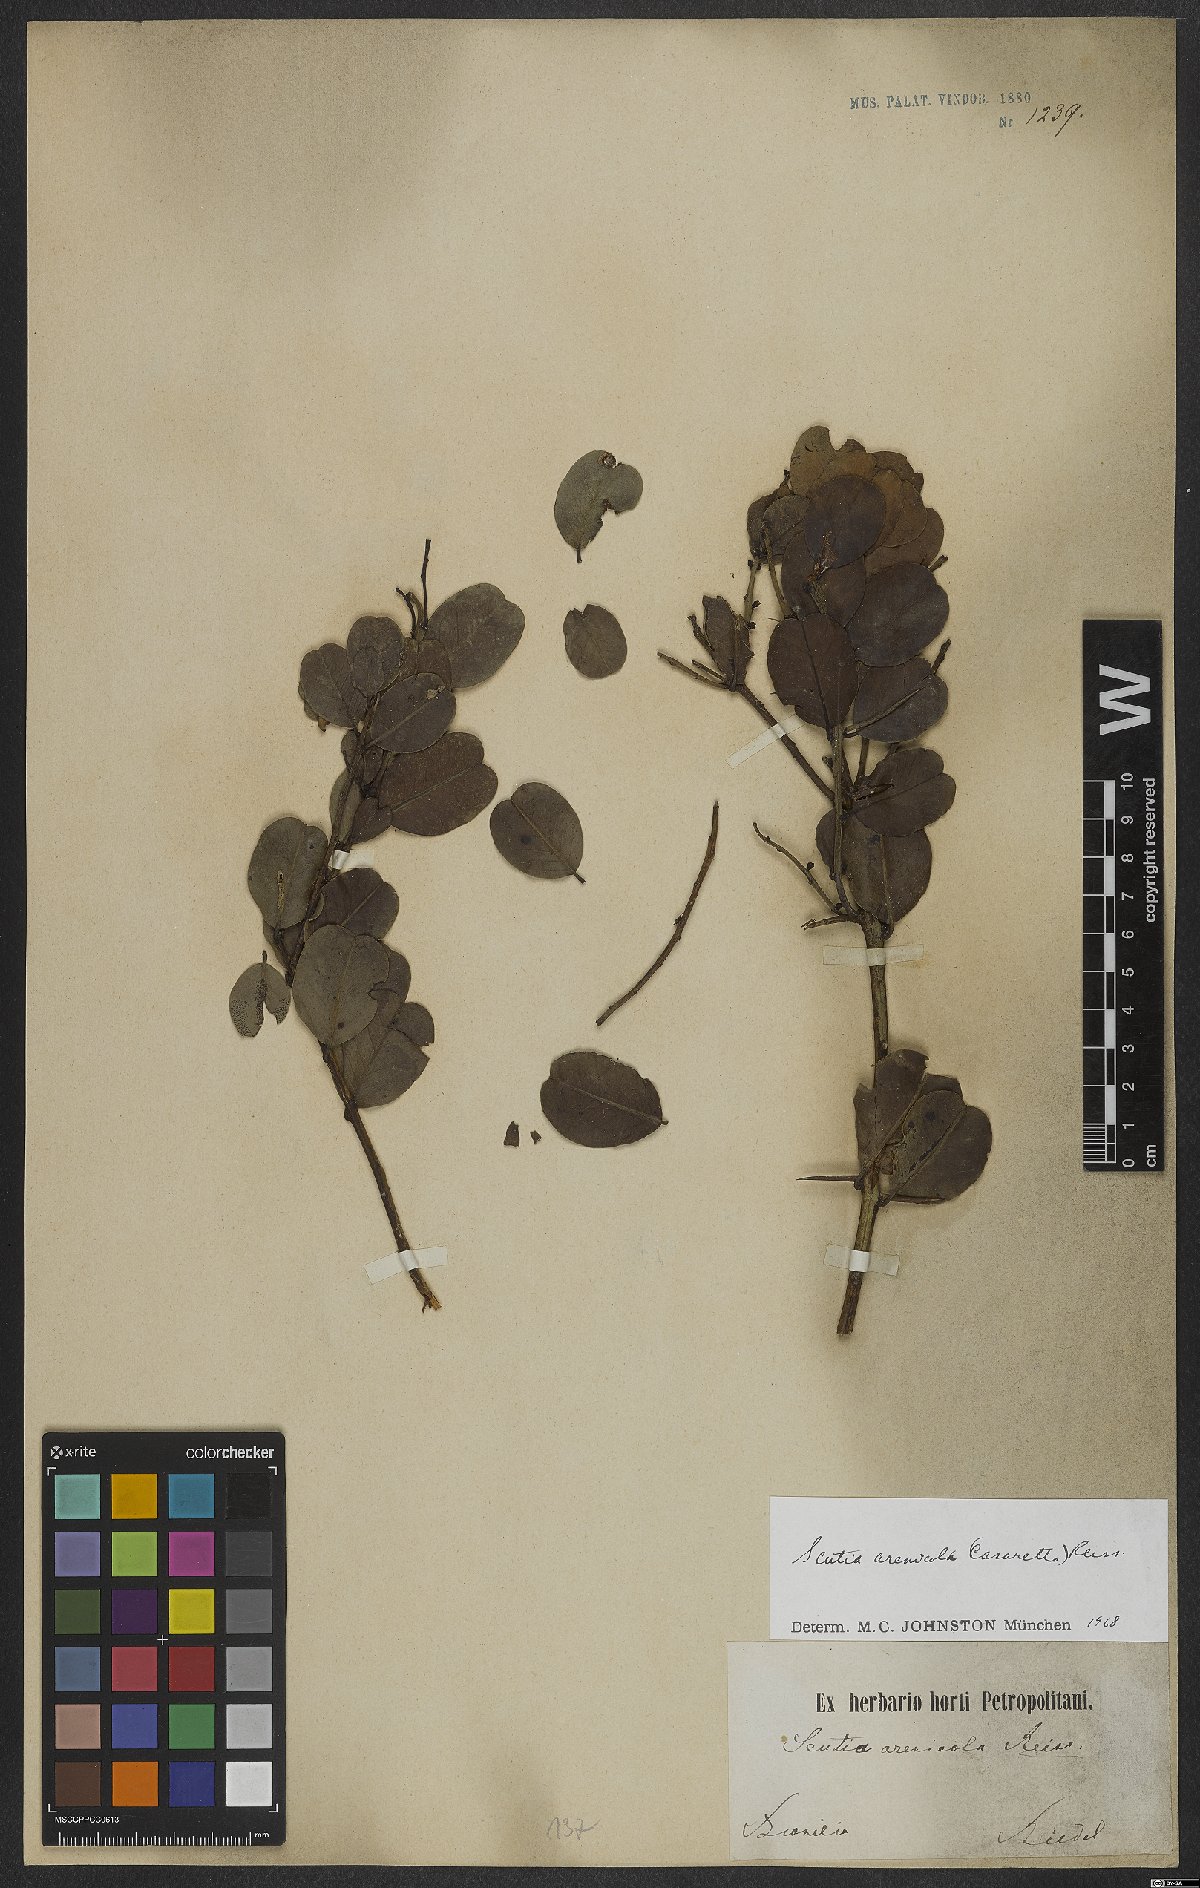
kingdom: Plantae
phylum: Tracheophyta
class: Magnoliopsida
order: Rosales
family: Rhamnaceae
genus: Scutia
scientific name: Scutia arenicola
